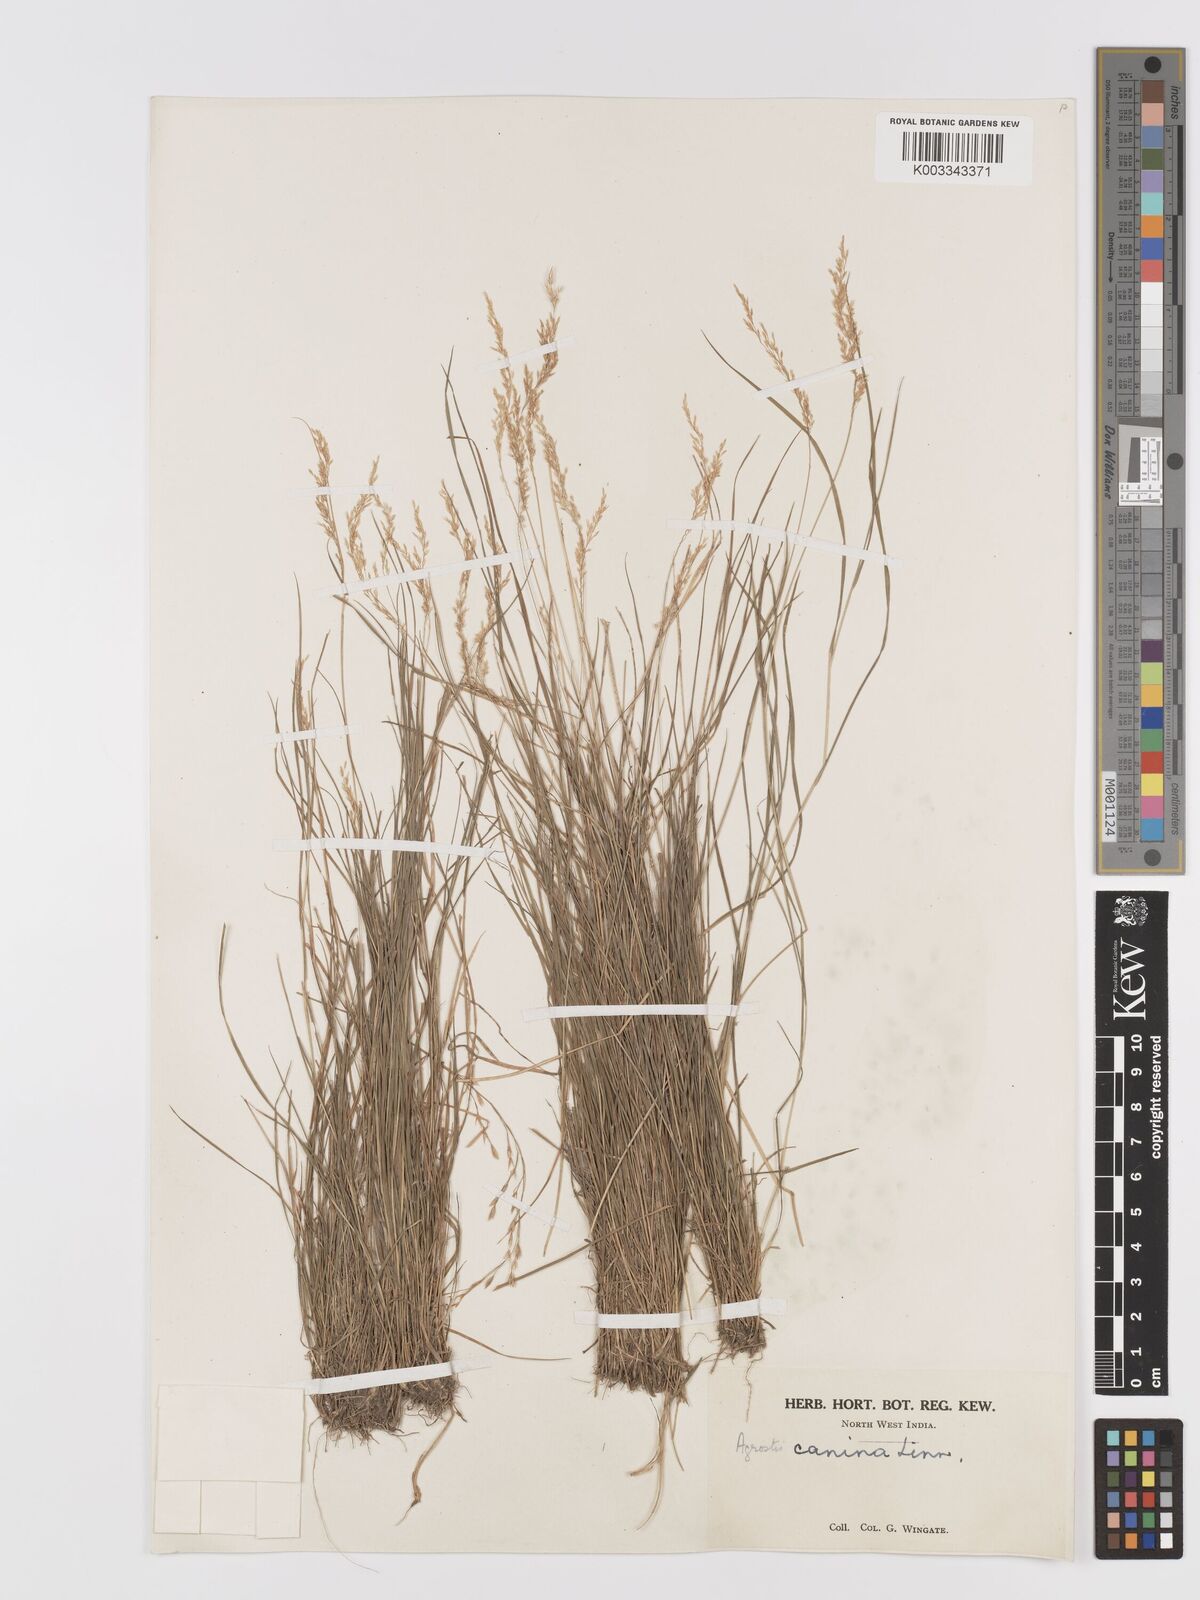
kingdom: Plantae
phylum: Tracheophyta
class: Liliopsida
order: Poales
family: Poaceae
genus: Agrostis
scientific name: Agrostis
